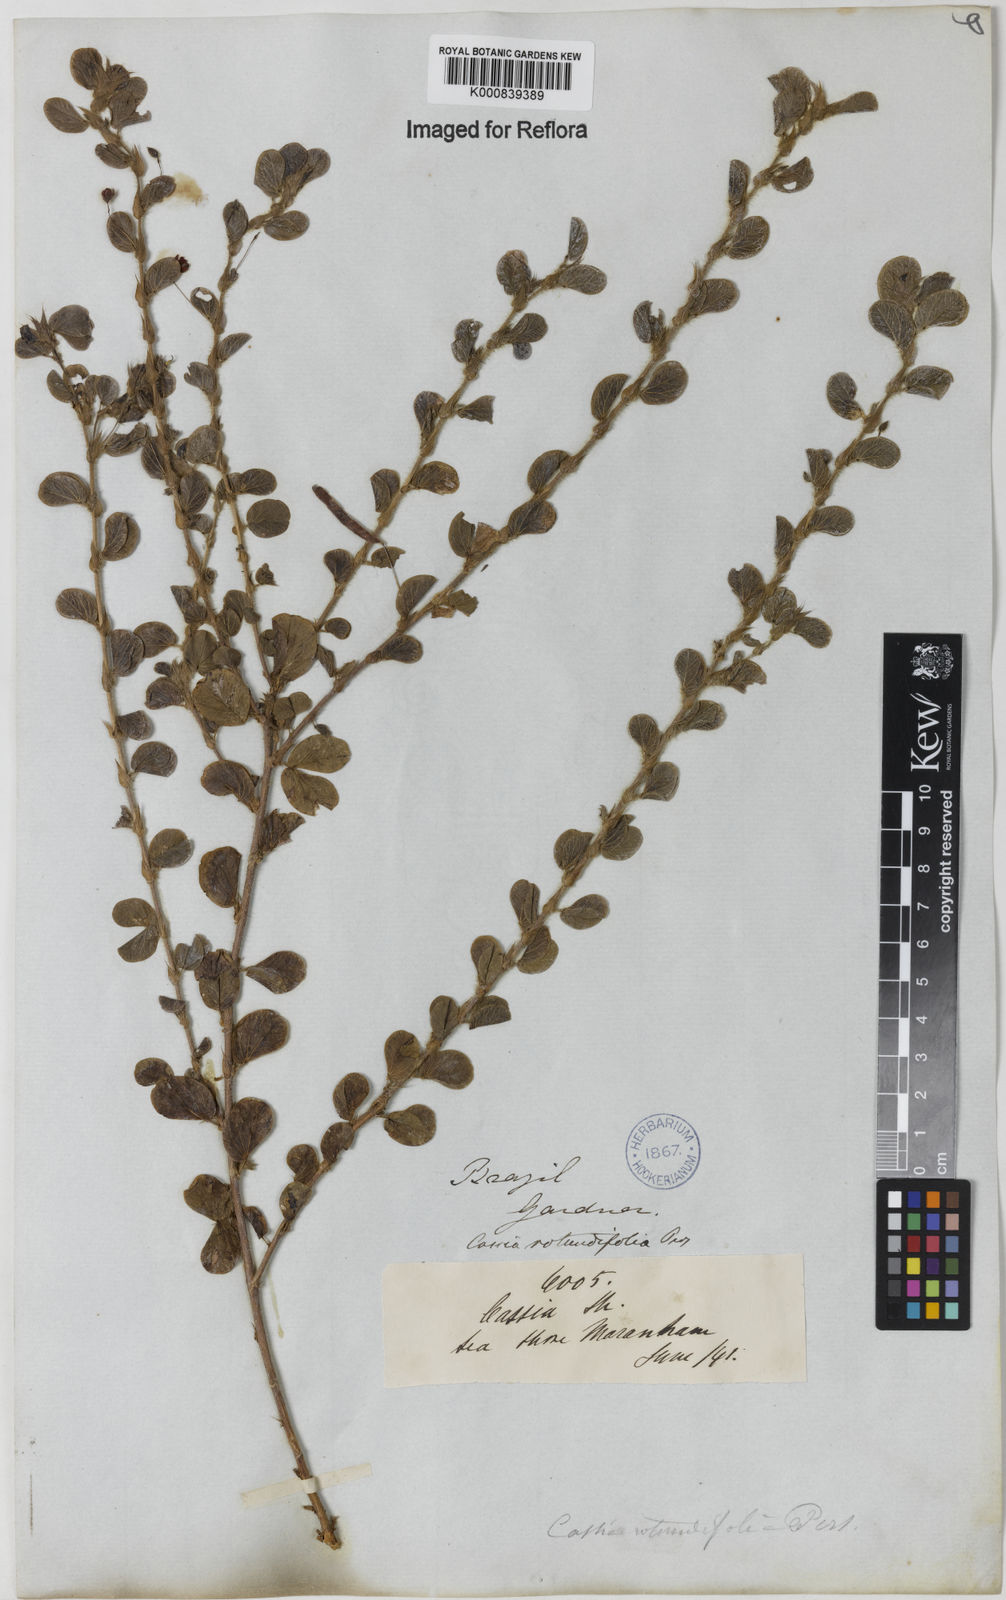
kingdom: Plantae
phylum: Tracheophyta
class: Magnoliopsida
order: Fabales
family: Fabaceae
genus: Chamaecrista
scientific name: Chamaecrista rotundifolia
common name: Round-leaf cassia
